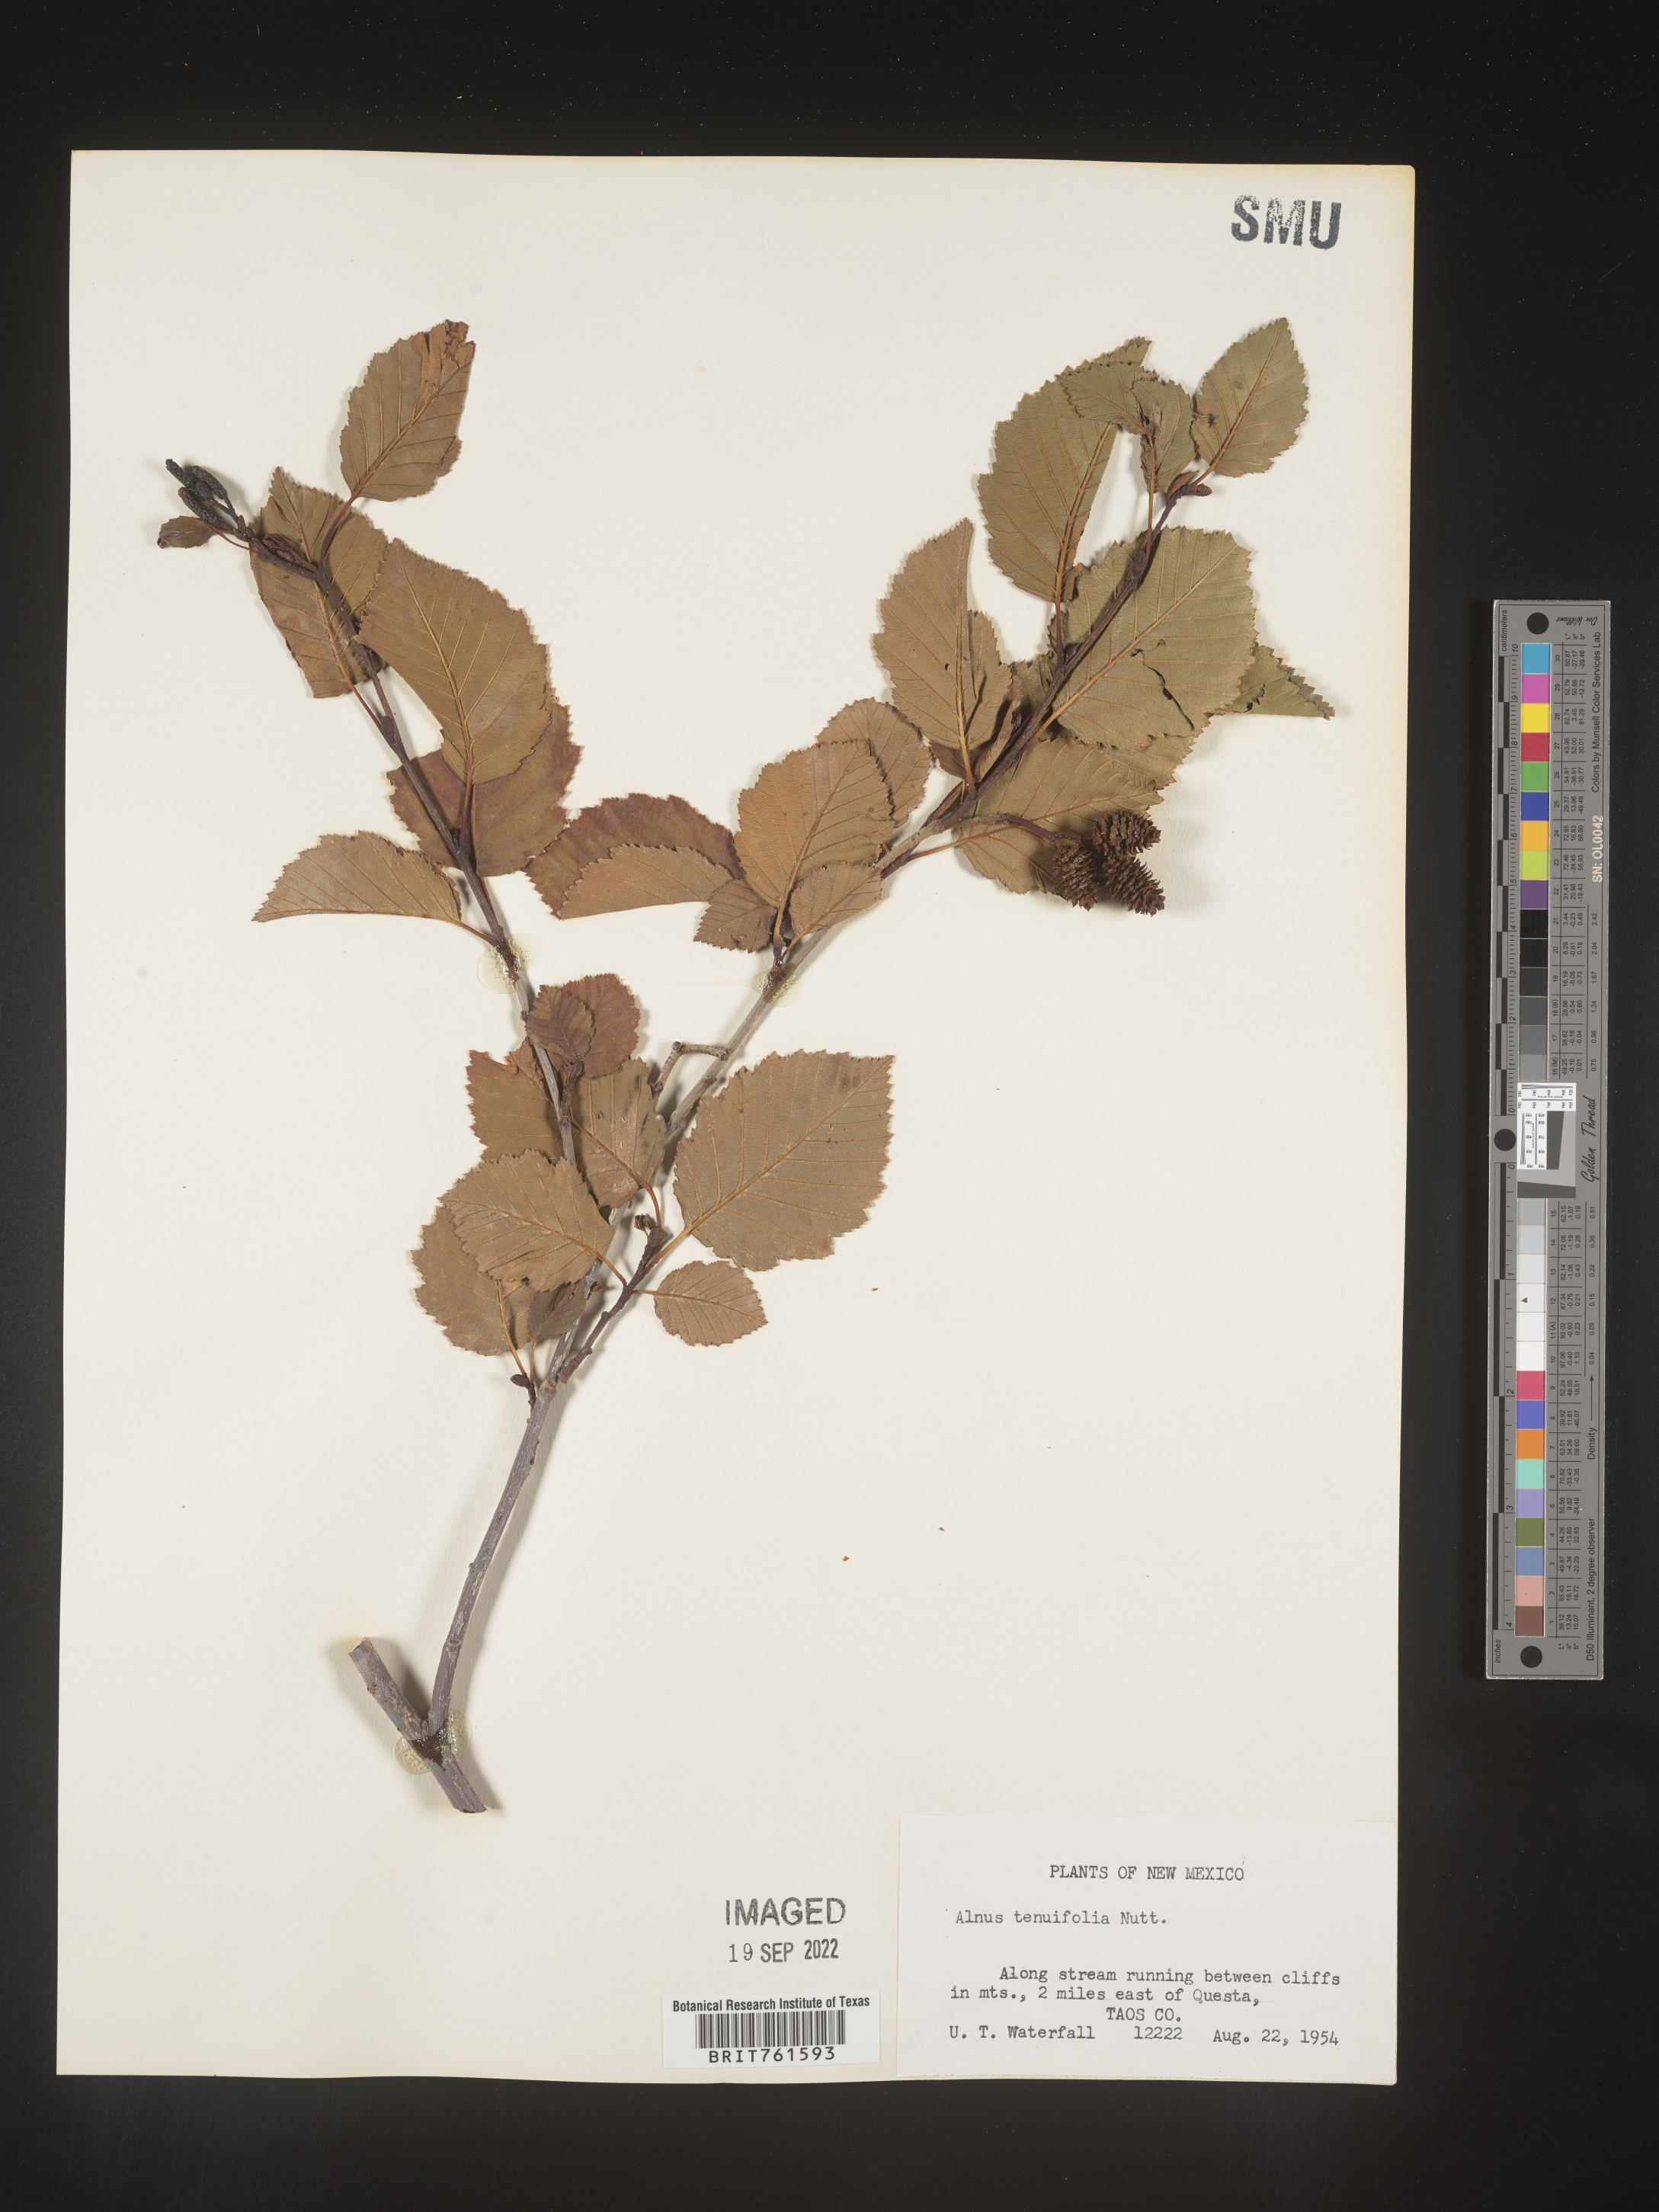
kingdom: Plantae
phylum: Tracheophyta
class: Magnoliopsida
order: Fagales
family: Betulaceae
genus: Alnus
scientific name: Alnus incana
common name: Grey alder
